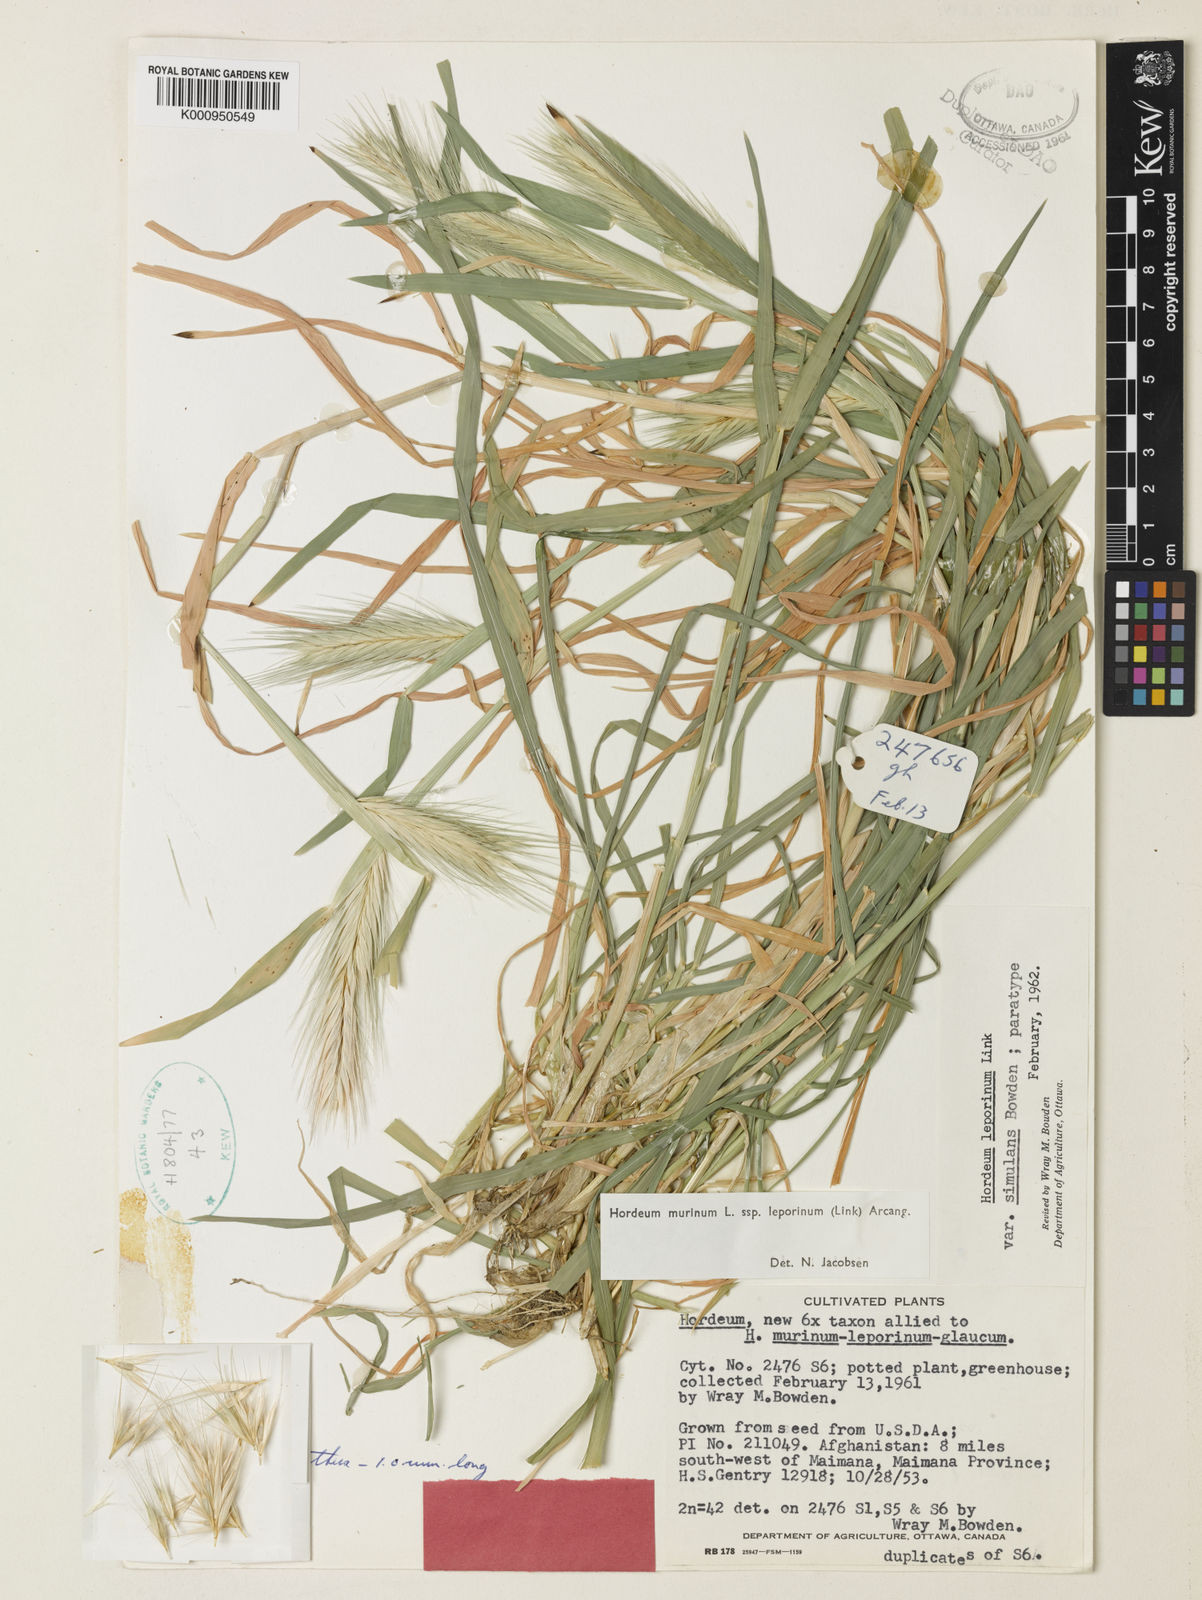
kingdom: Plantae
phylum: Tracheophyta
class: Liliopsida
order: Poales
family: Poaceae
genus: Hordeum
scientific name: Hordeum murinum
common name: Wall barley
